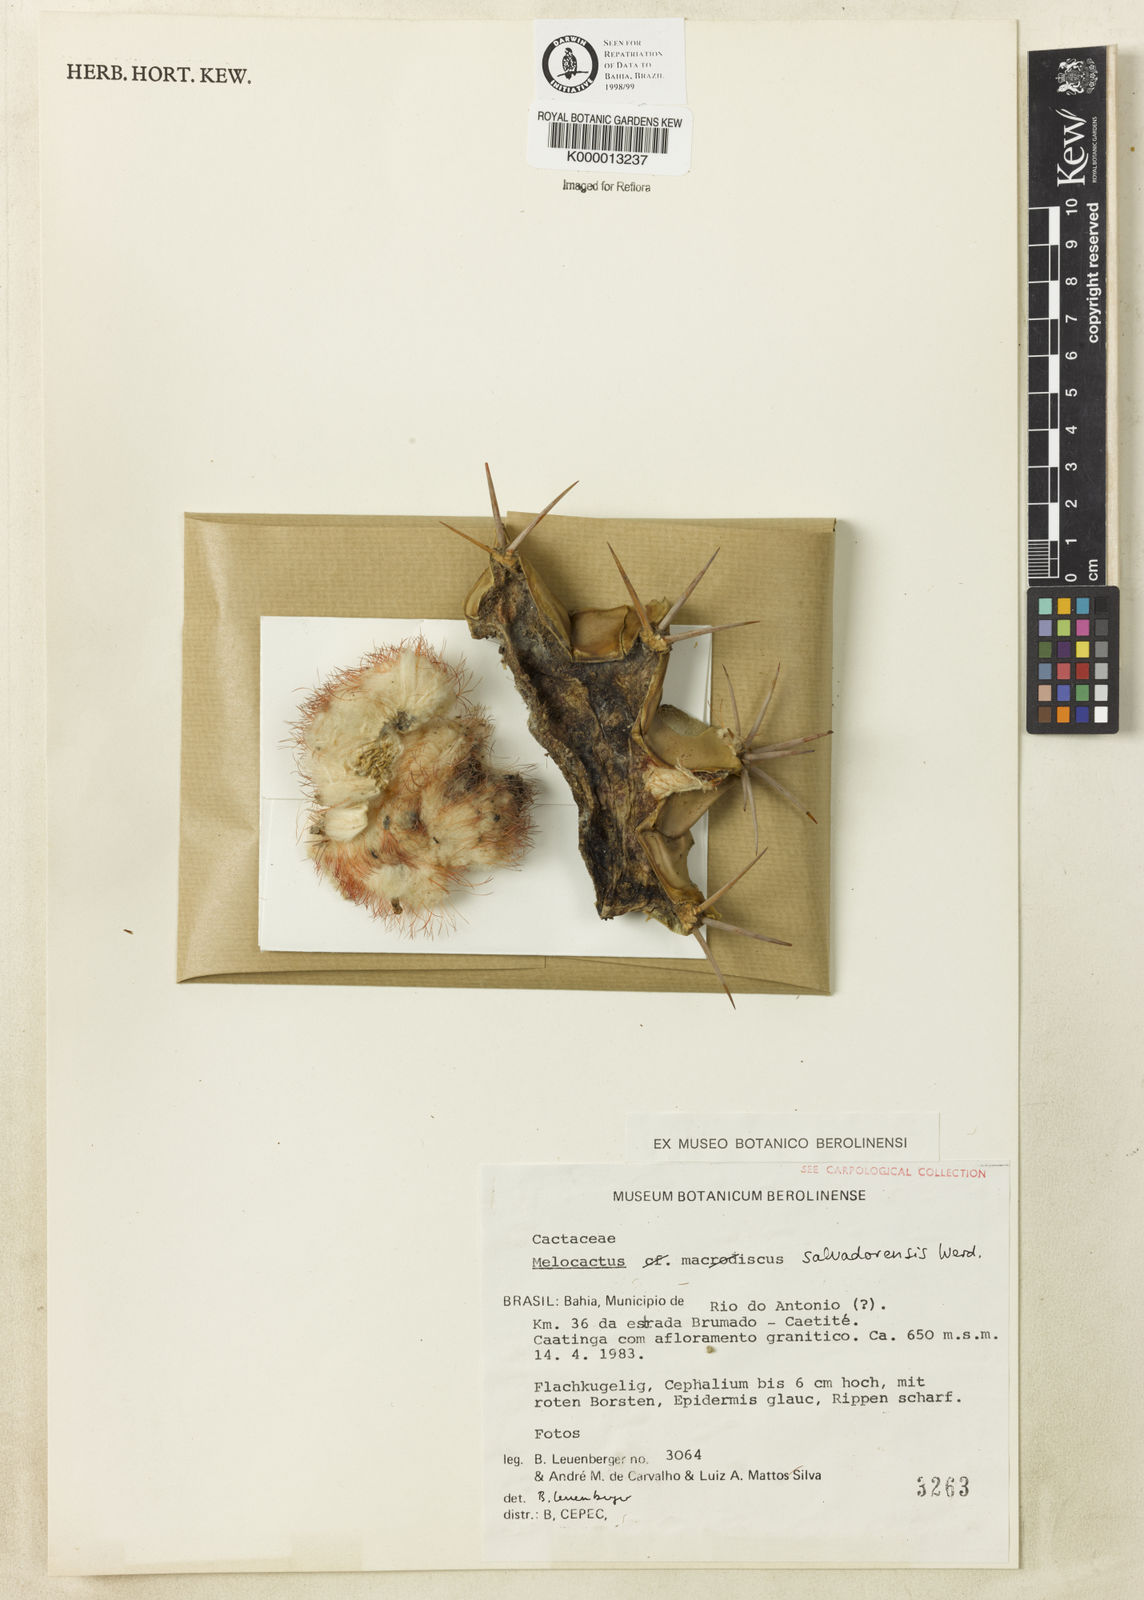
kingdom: Plantae
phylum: Tracheophyta
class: Magnoliopsida
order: Caryophyllales
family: Cactaceae
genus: Melocactus
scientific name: Melocactus salvadorensis
